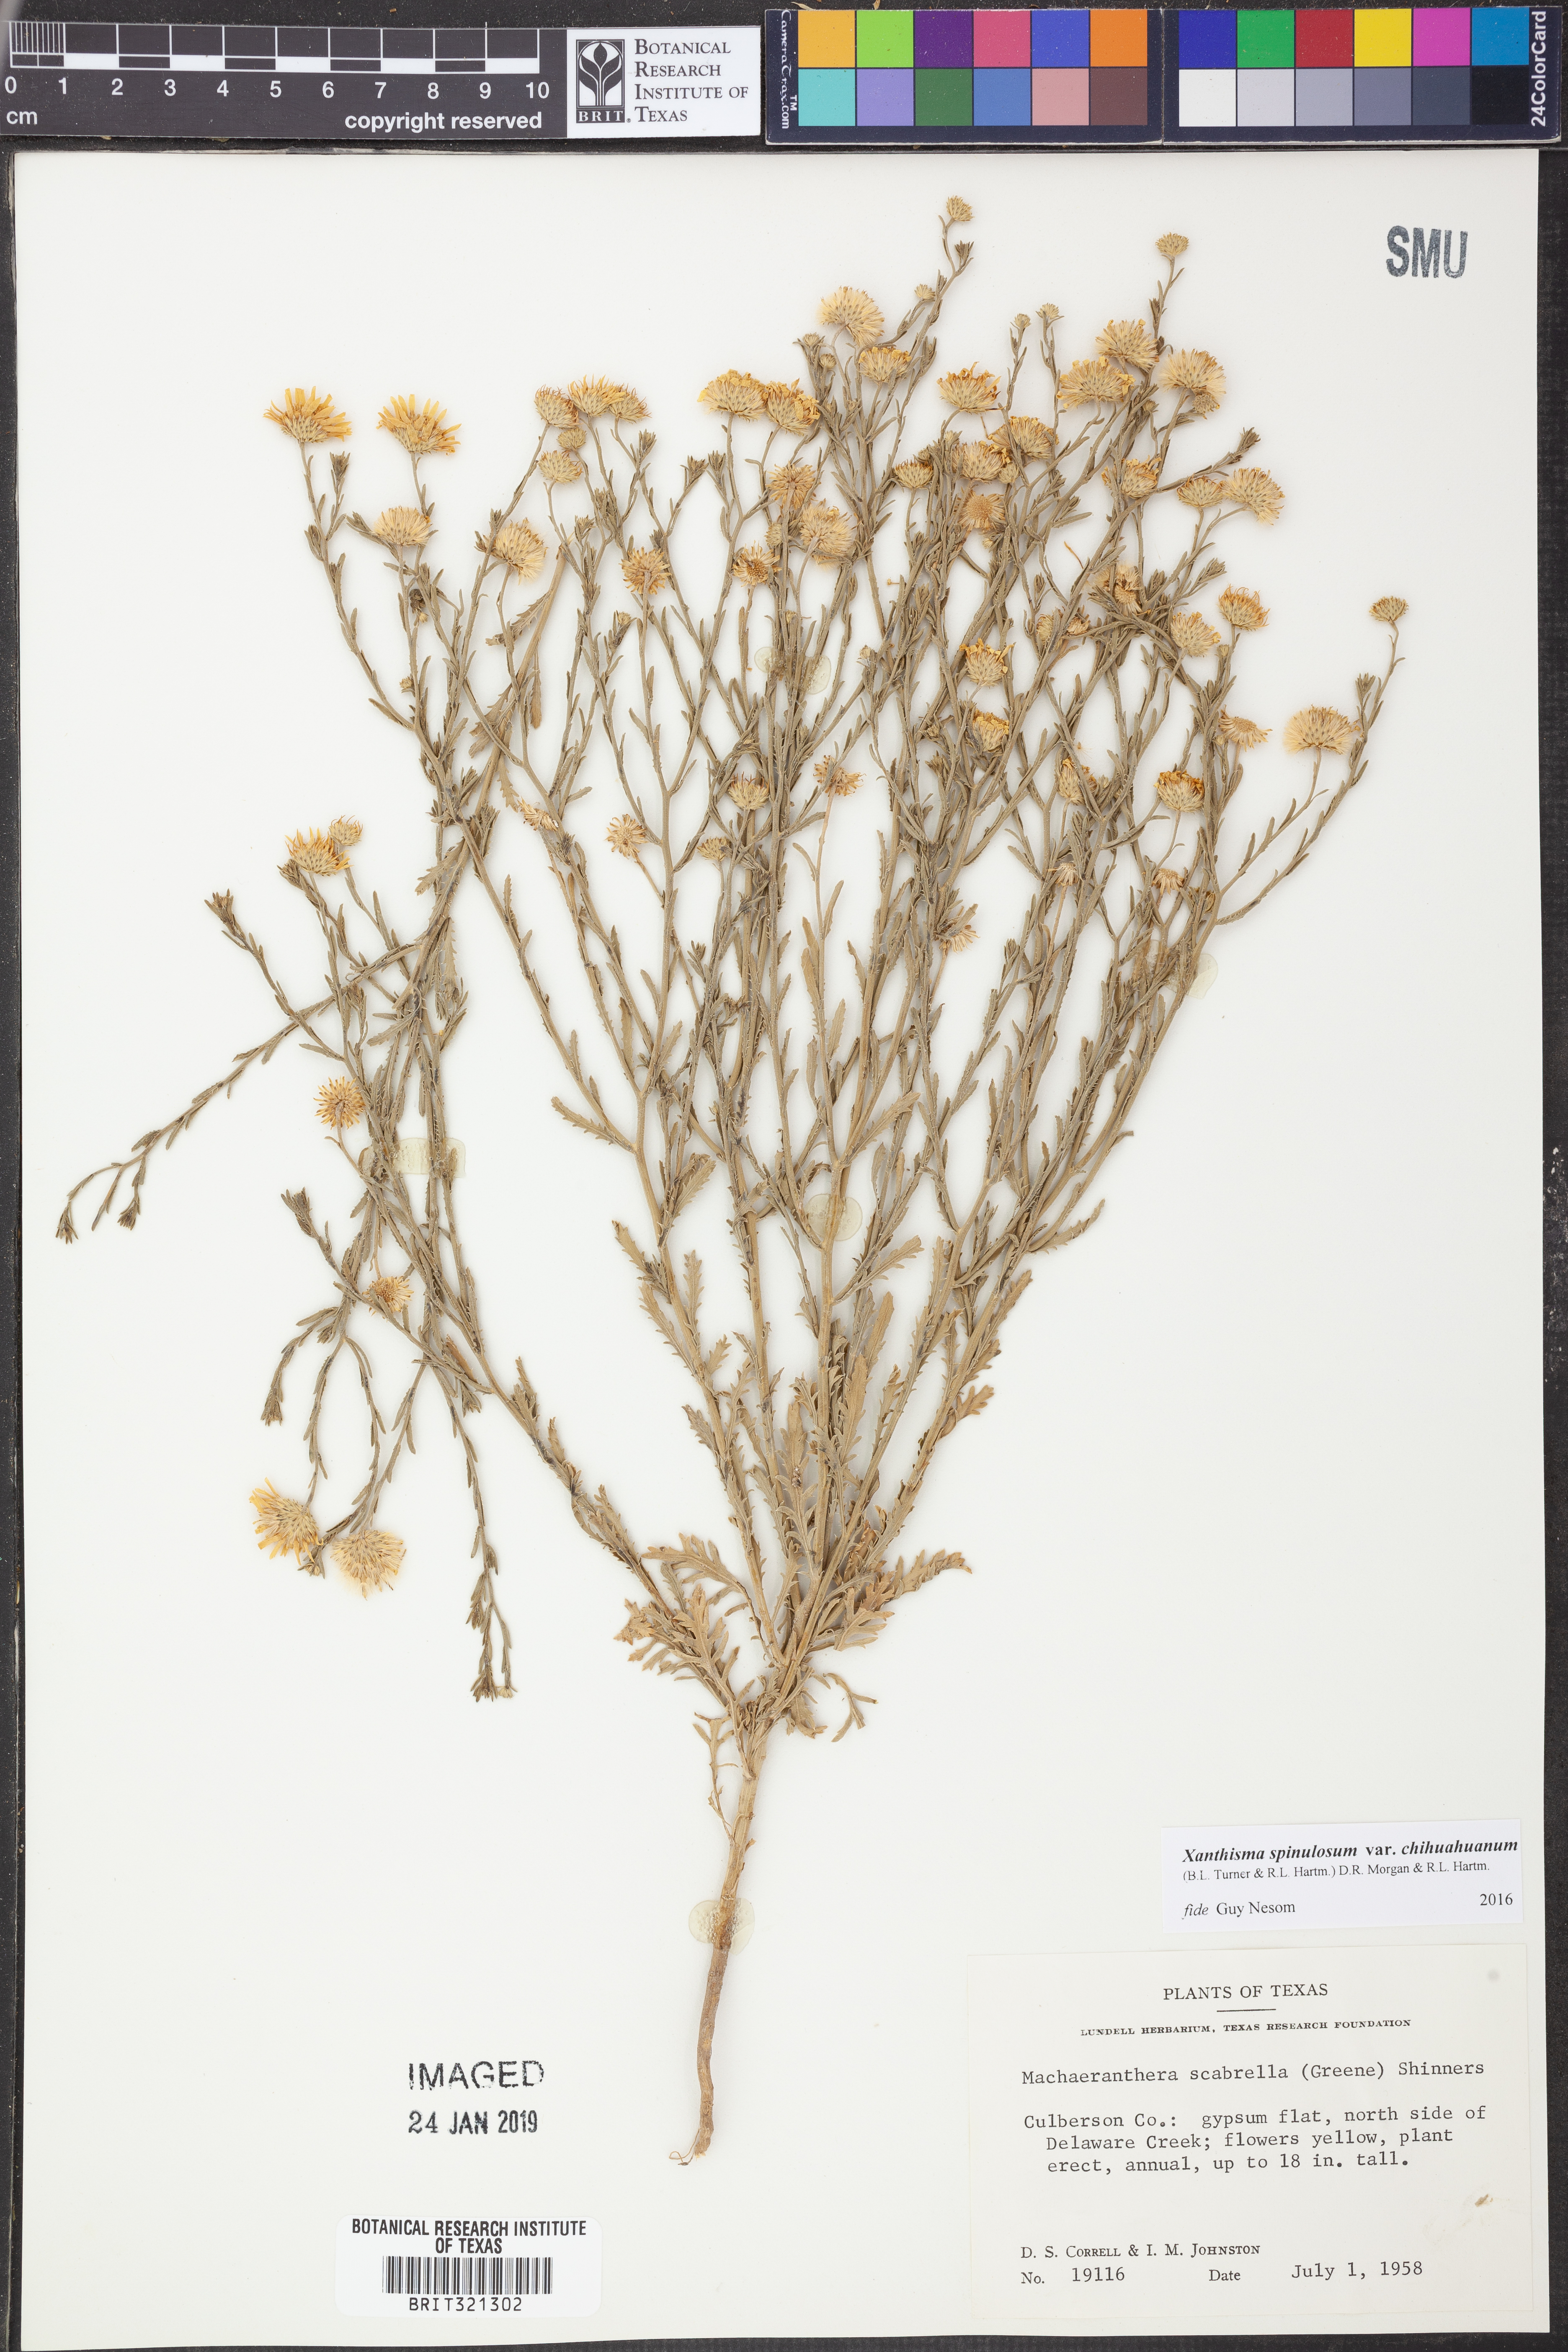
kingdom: Plantae
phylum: Tracheophyta
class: Magnoliopsida
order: Asterales
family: Asteraceae
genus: Xanthisma
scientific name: Xanthisma spinulosum
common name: Spiny goldenweed
